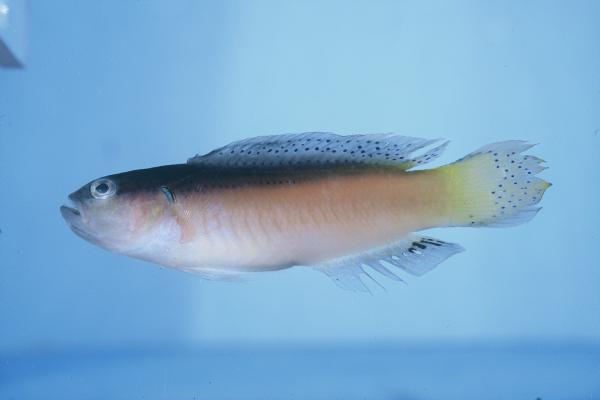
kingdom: Animalia
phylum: Chordata
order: Perciformes
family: Pseudochromidae
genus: Pseudochromis
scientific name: Pseudochromis melas
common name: Dark dottyback
